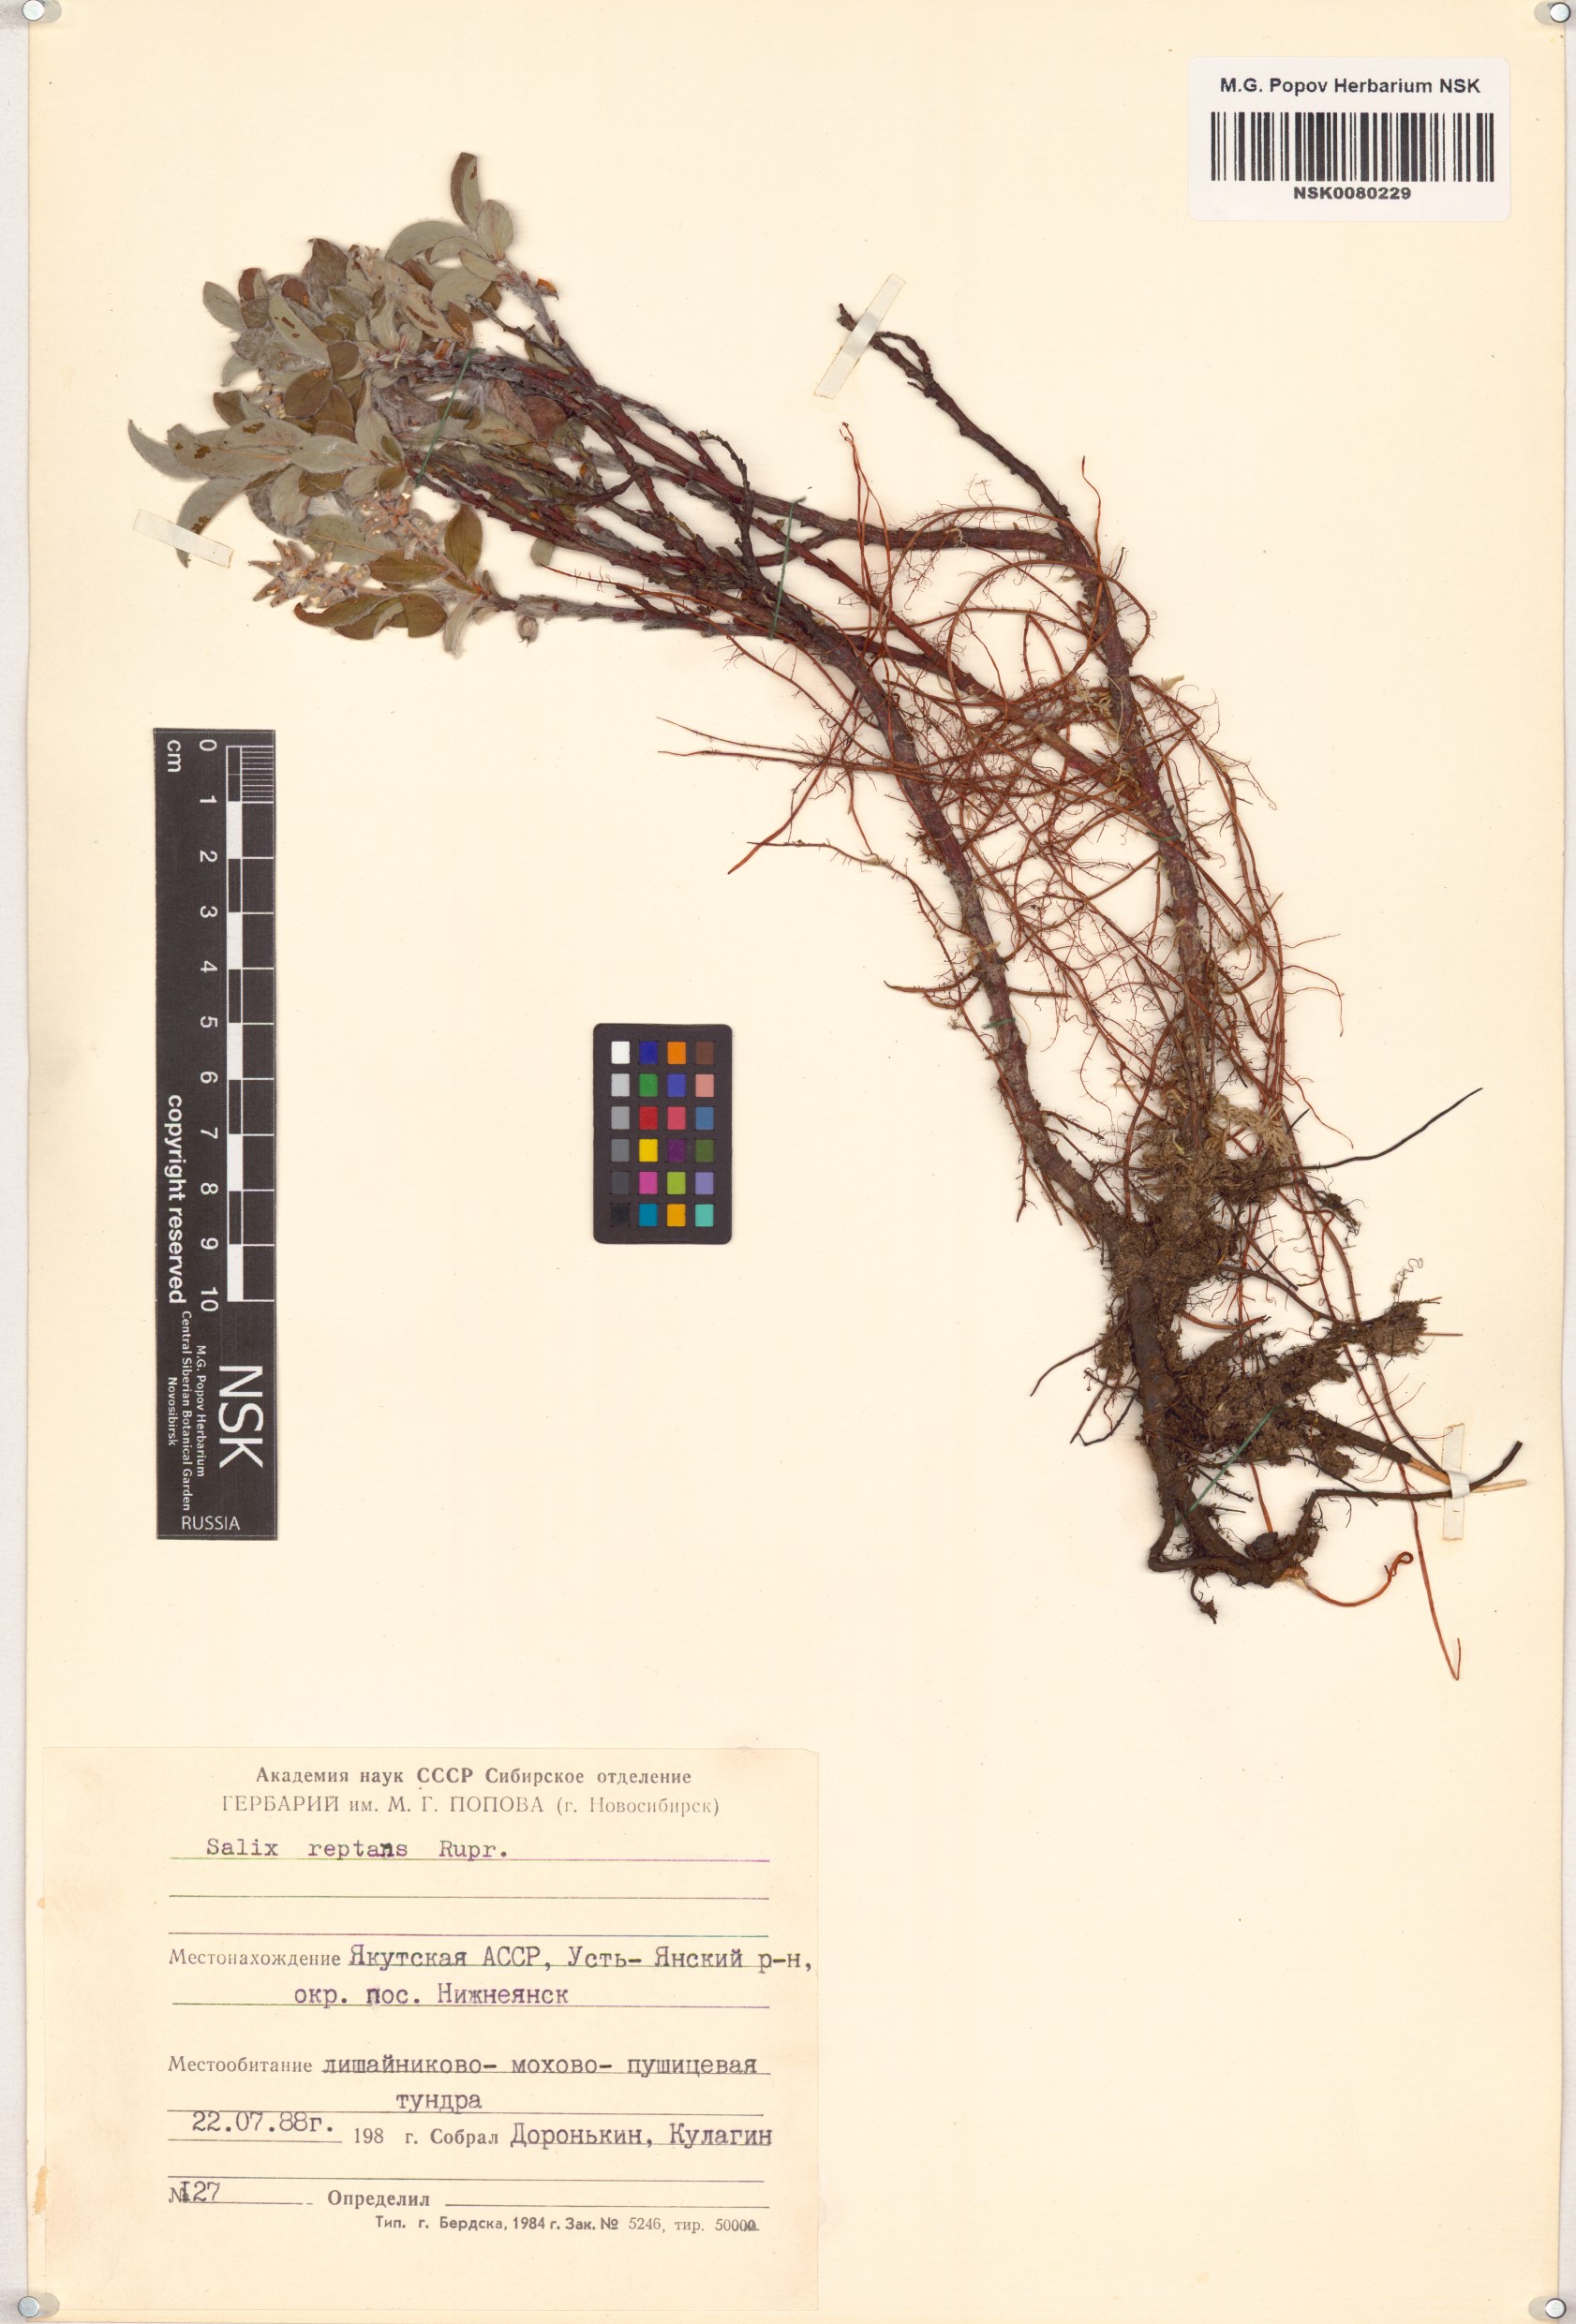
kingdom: Plantae
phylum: Tracheophyta
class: Magnoliopsida
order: Malpighiales
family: Salicaceae
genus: Salix
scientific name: Salix reptans
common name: Arctic creeping willow
